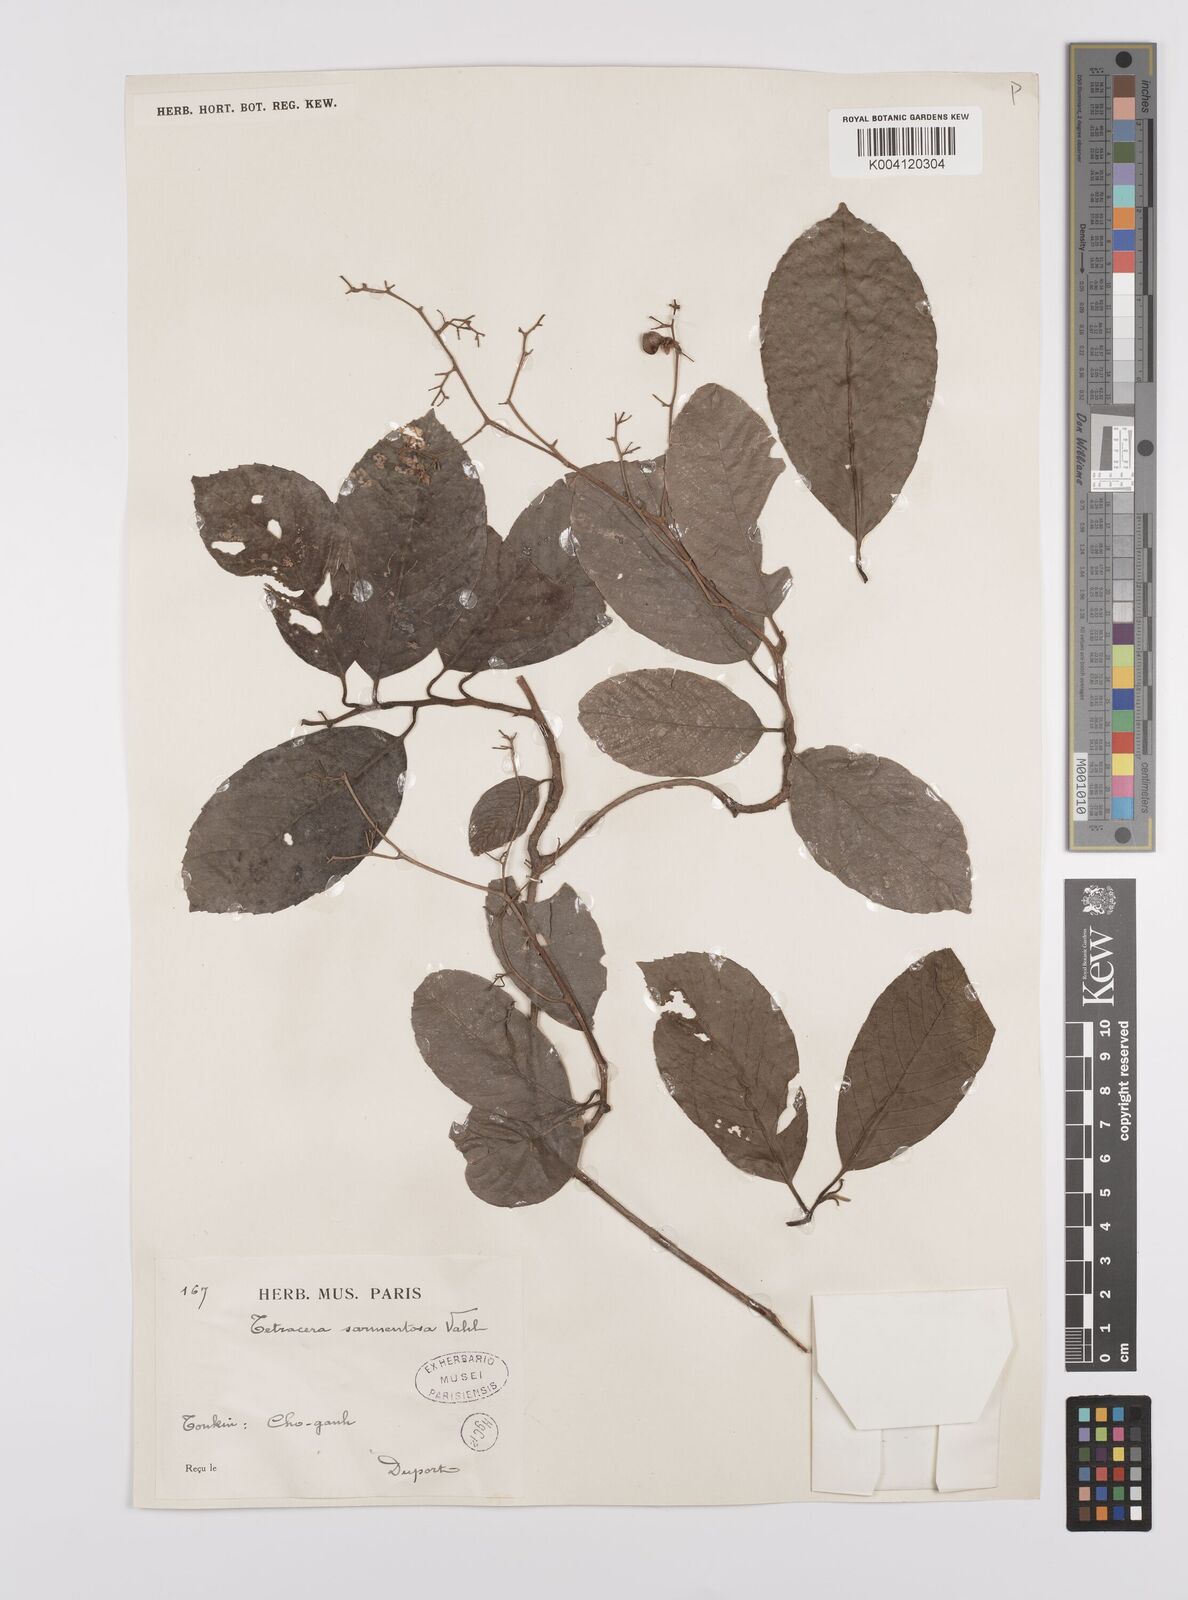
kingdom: Plantae
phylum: Tracheophyta
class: Magnoliopsida
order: Dilleniales
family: Dilleniaceae
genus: Tetracera
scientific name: Tetracera sarmentosa
